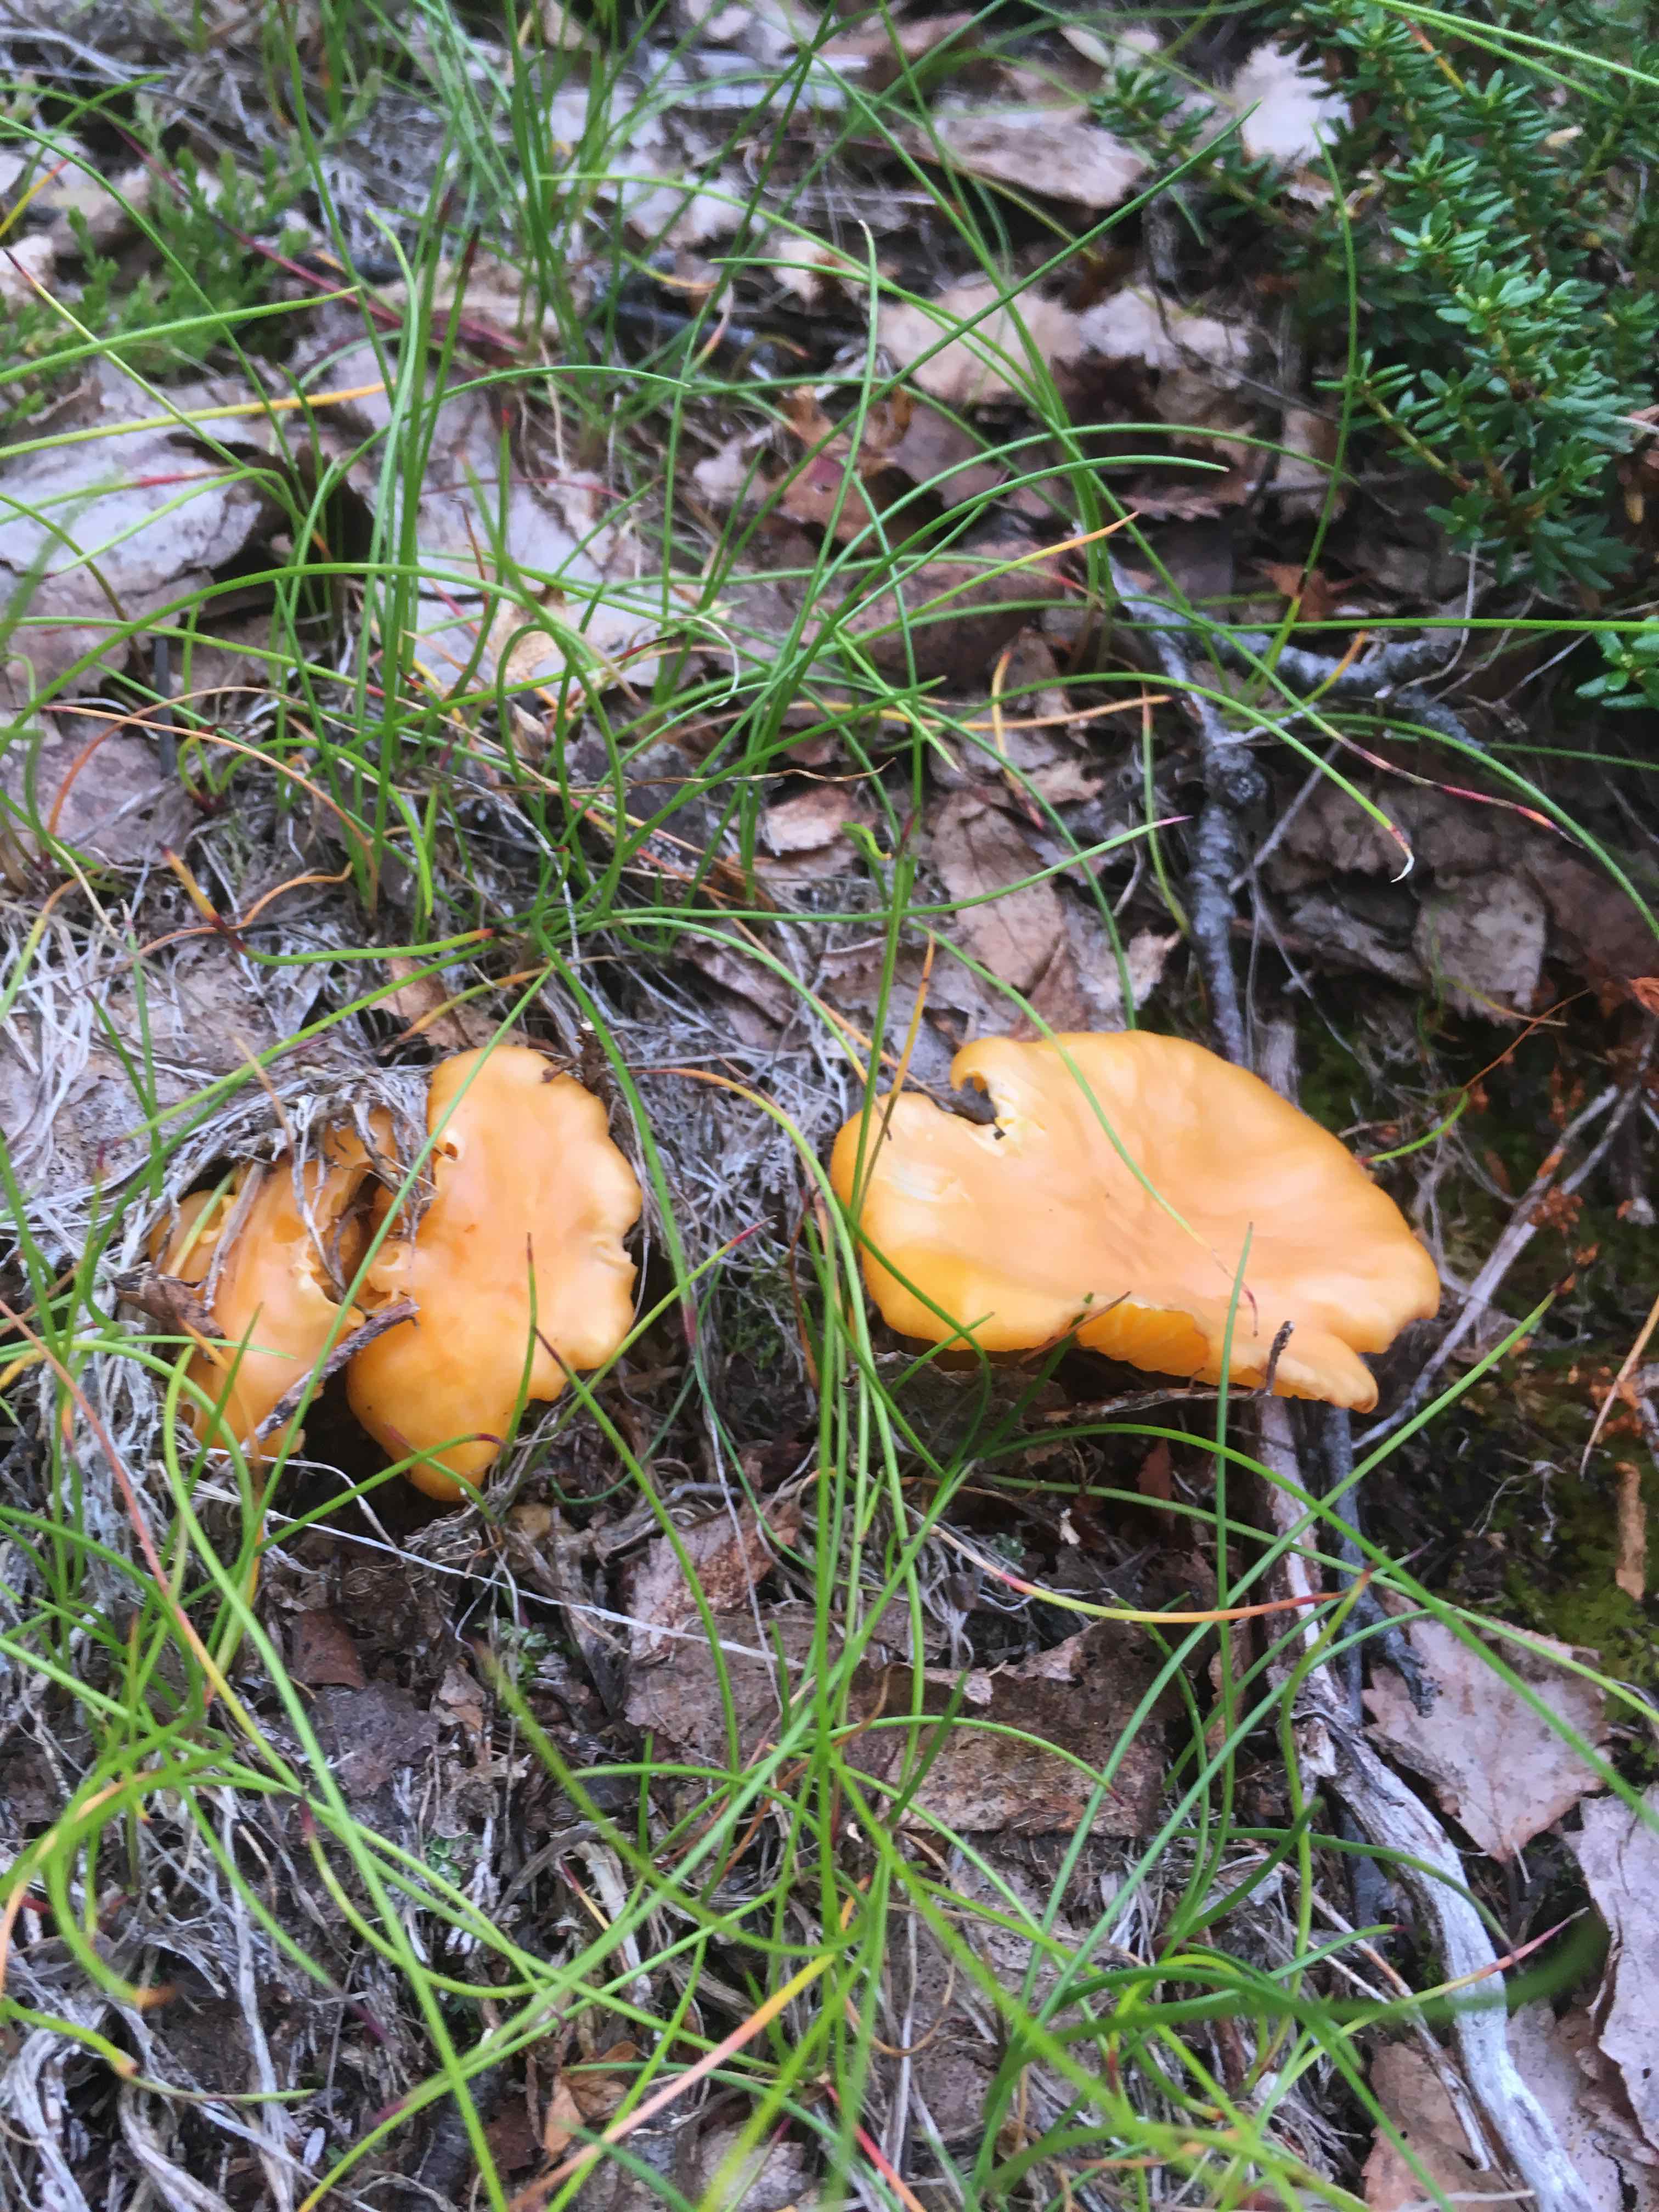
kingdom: Fungi
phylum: Basidiomycota
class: Agaricomycetes
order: Cantharellales
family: Hydnaceae
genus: Cantharellus
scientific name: Cantharellus cibarius
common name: almindelig kantarel
